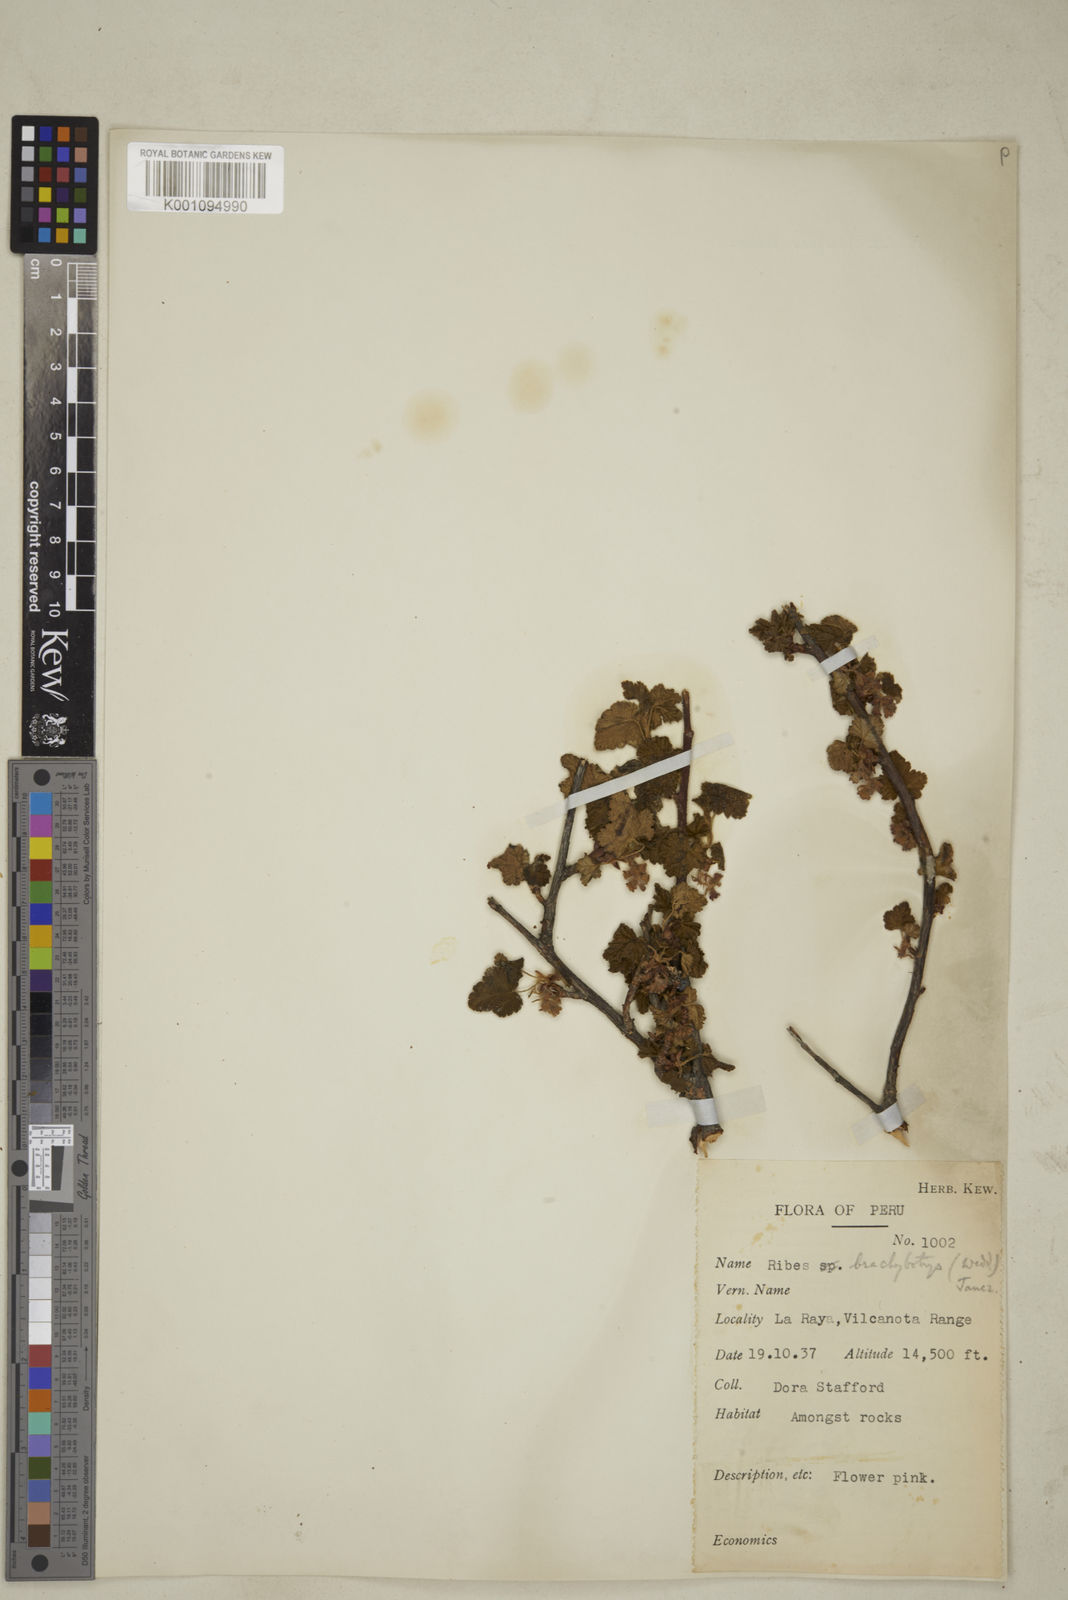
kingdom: Plantae
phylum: Tracheophyta
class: Magnoliopsida
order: Saxifragales
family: Grossulariaceae
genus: Ribes
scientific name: Ribes brachybotrys
